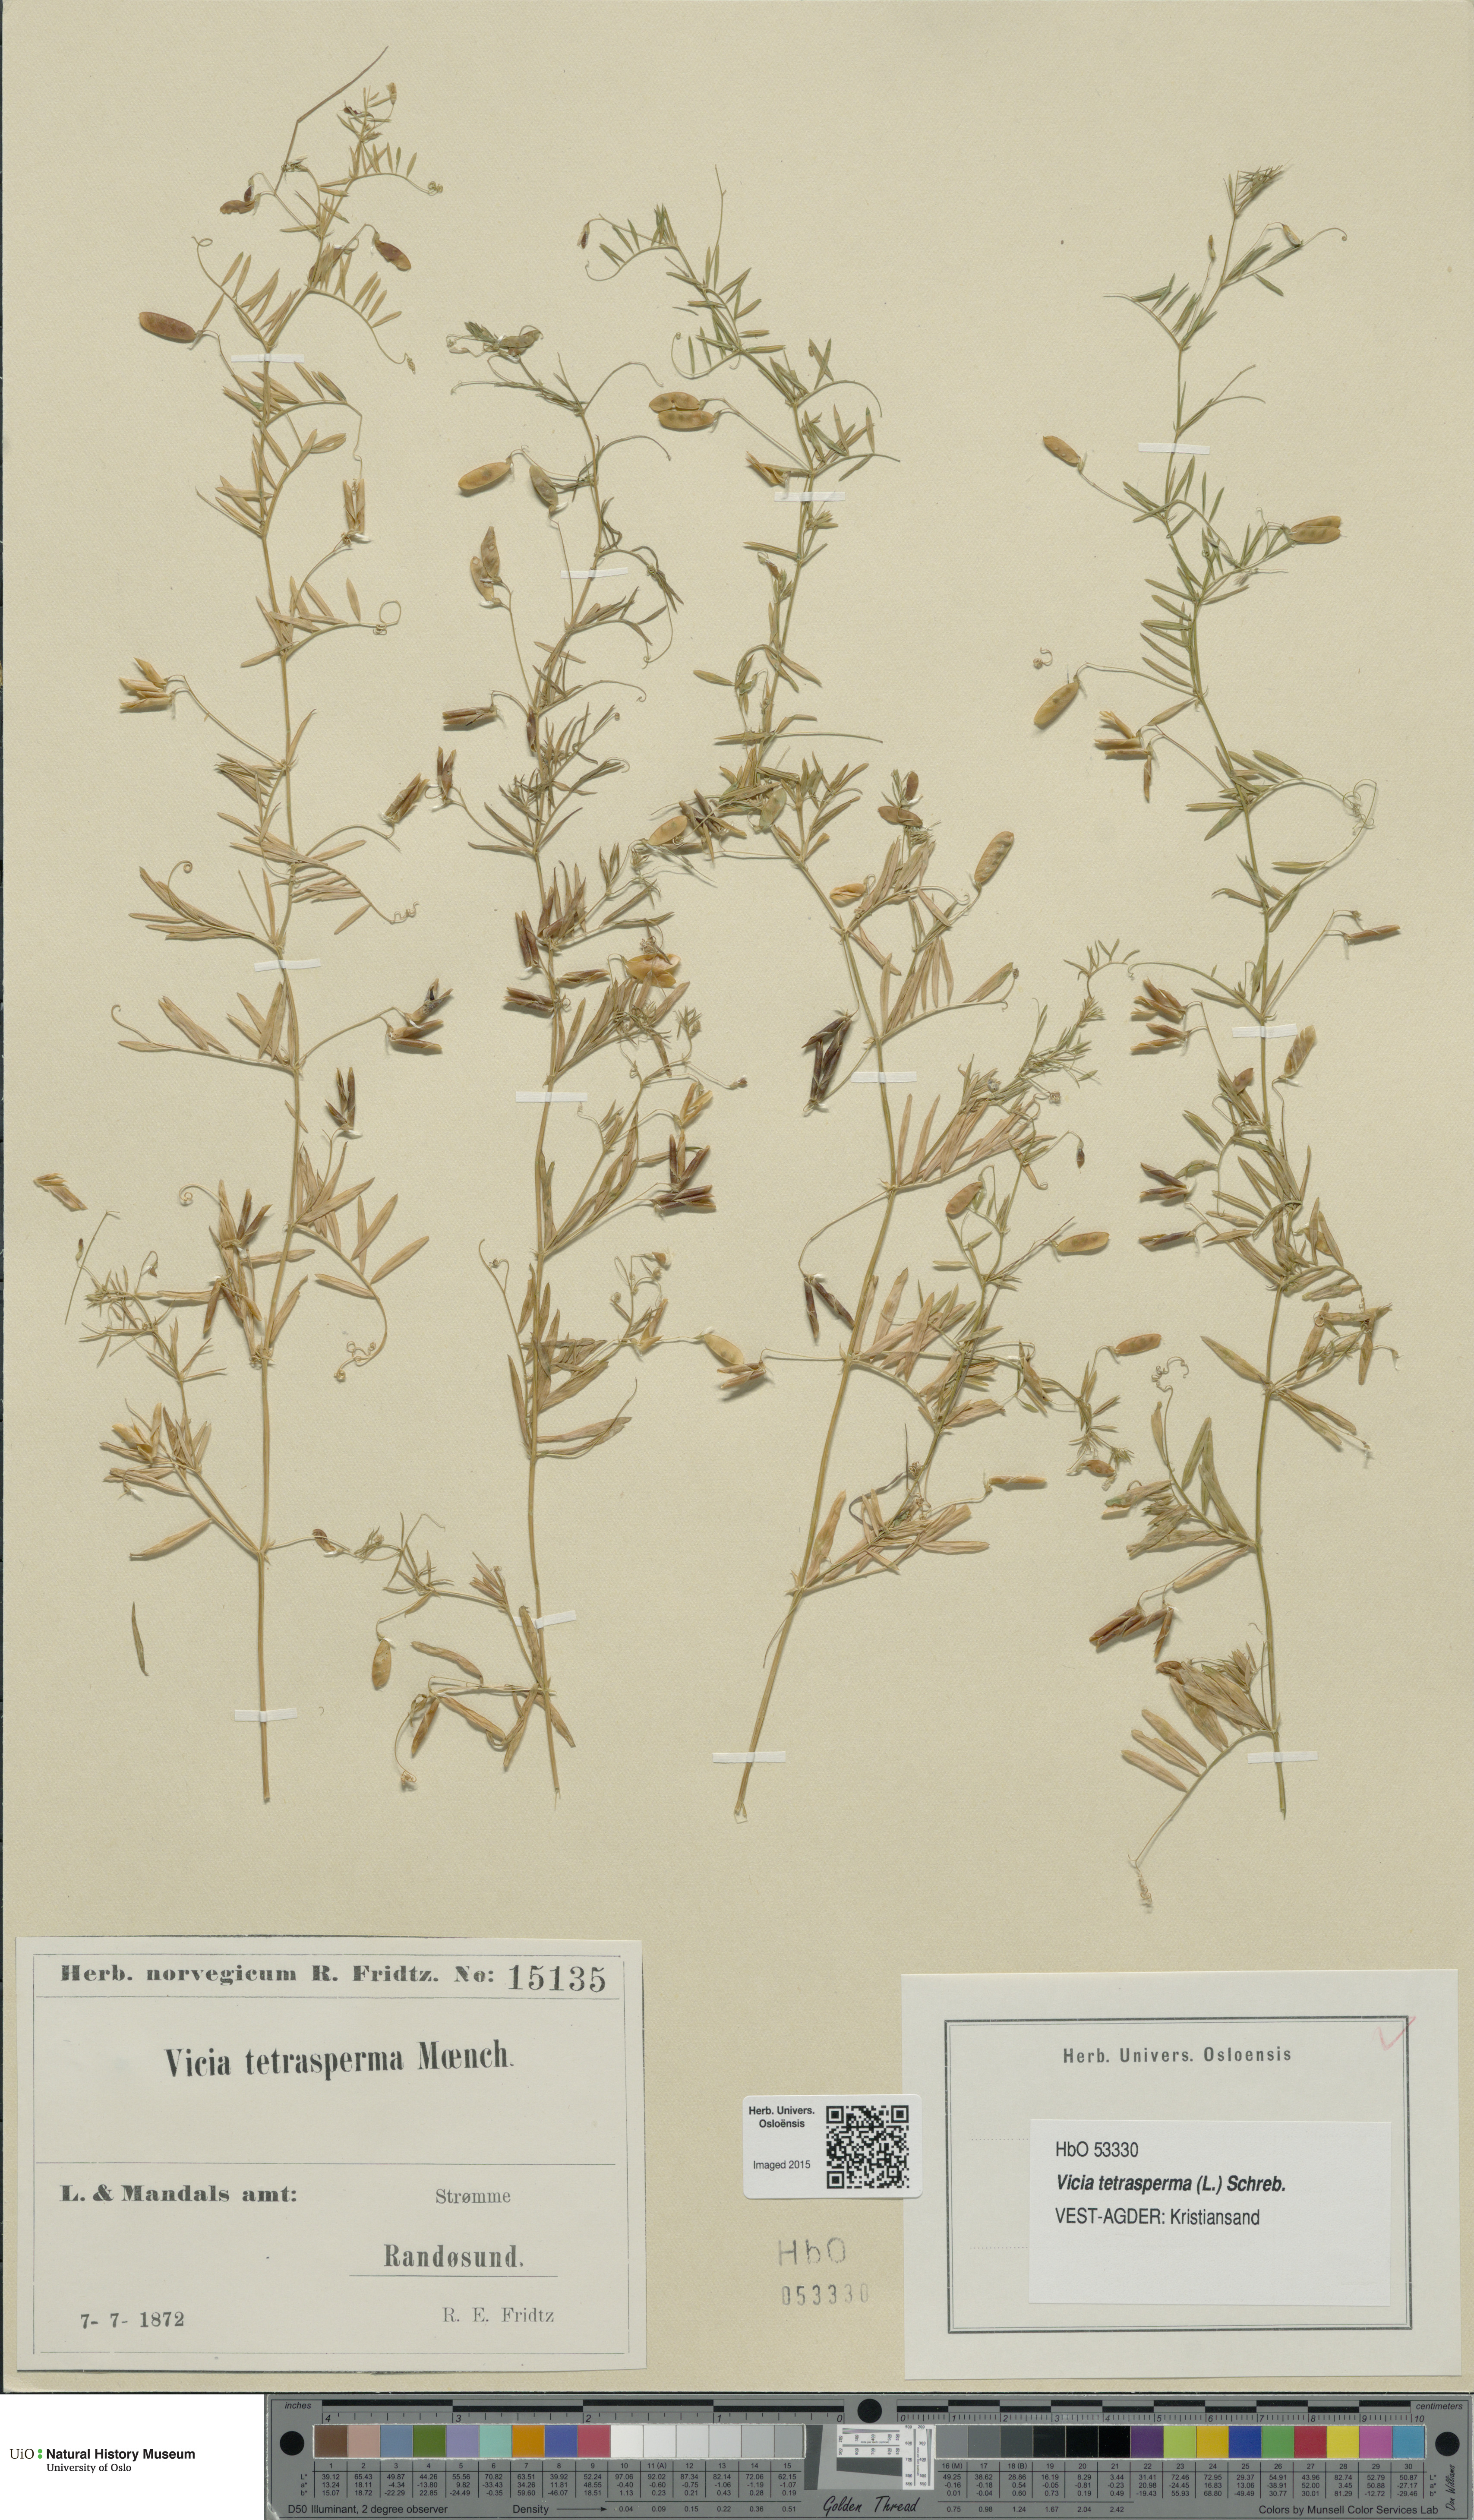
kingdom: Plantae
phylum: Tracheophyta
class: Magnoliopsida
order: Fabales
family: Fabaceae
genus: Vicia
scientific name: Vicia tetrasperma
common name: Smooth tare
